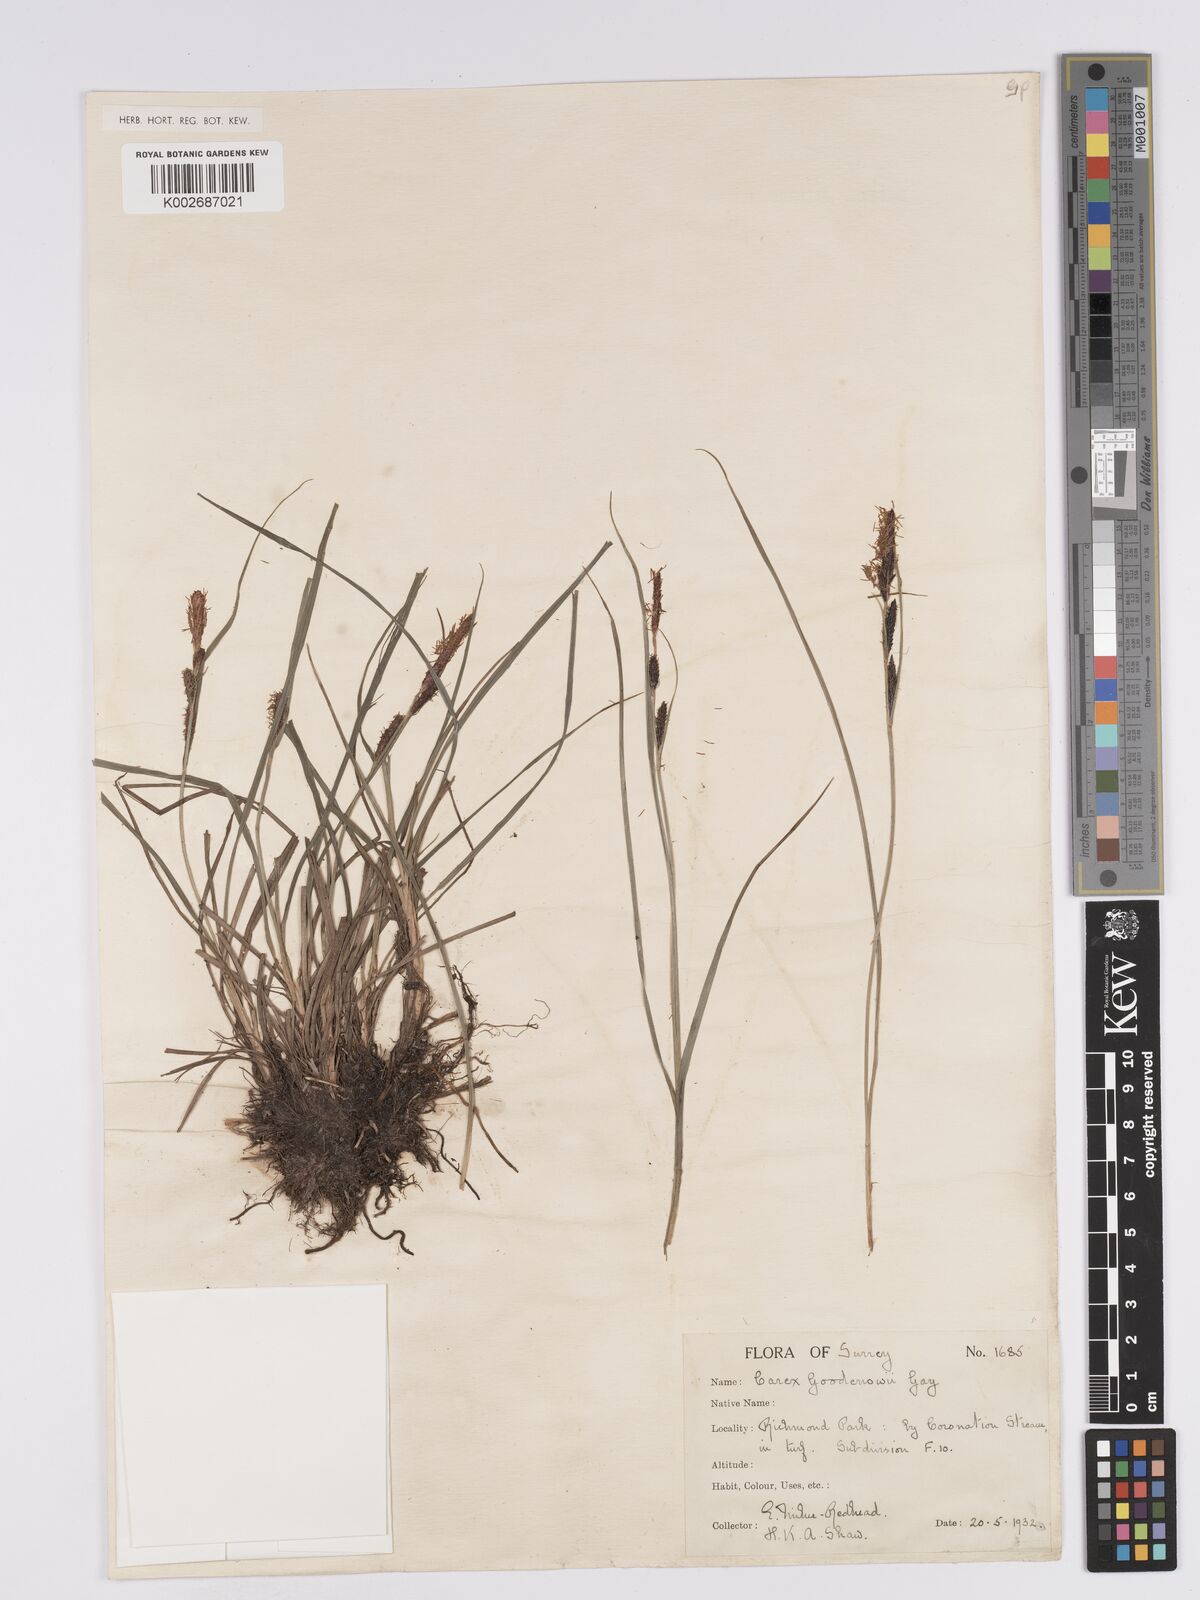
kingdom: Plantae
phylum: Tracheophyta
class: Liliopsida
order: Poales
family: Cyperaceae
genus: Carex
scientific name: Carex nigra
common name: Common sedge
